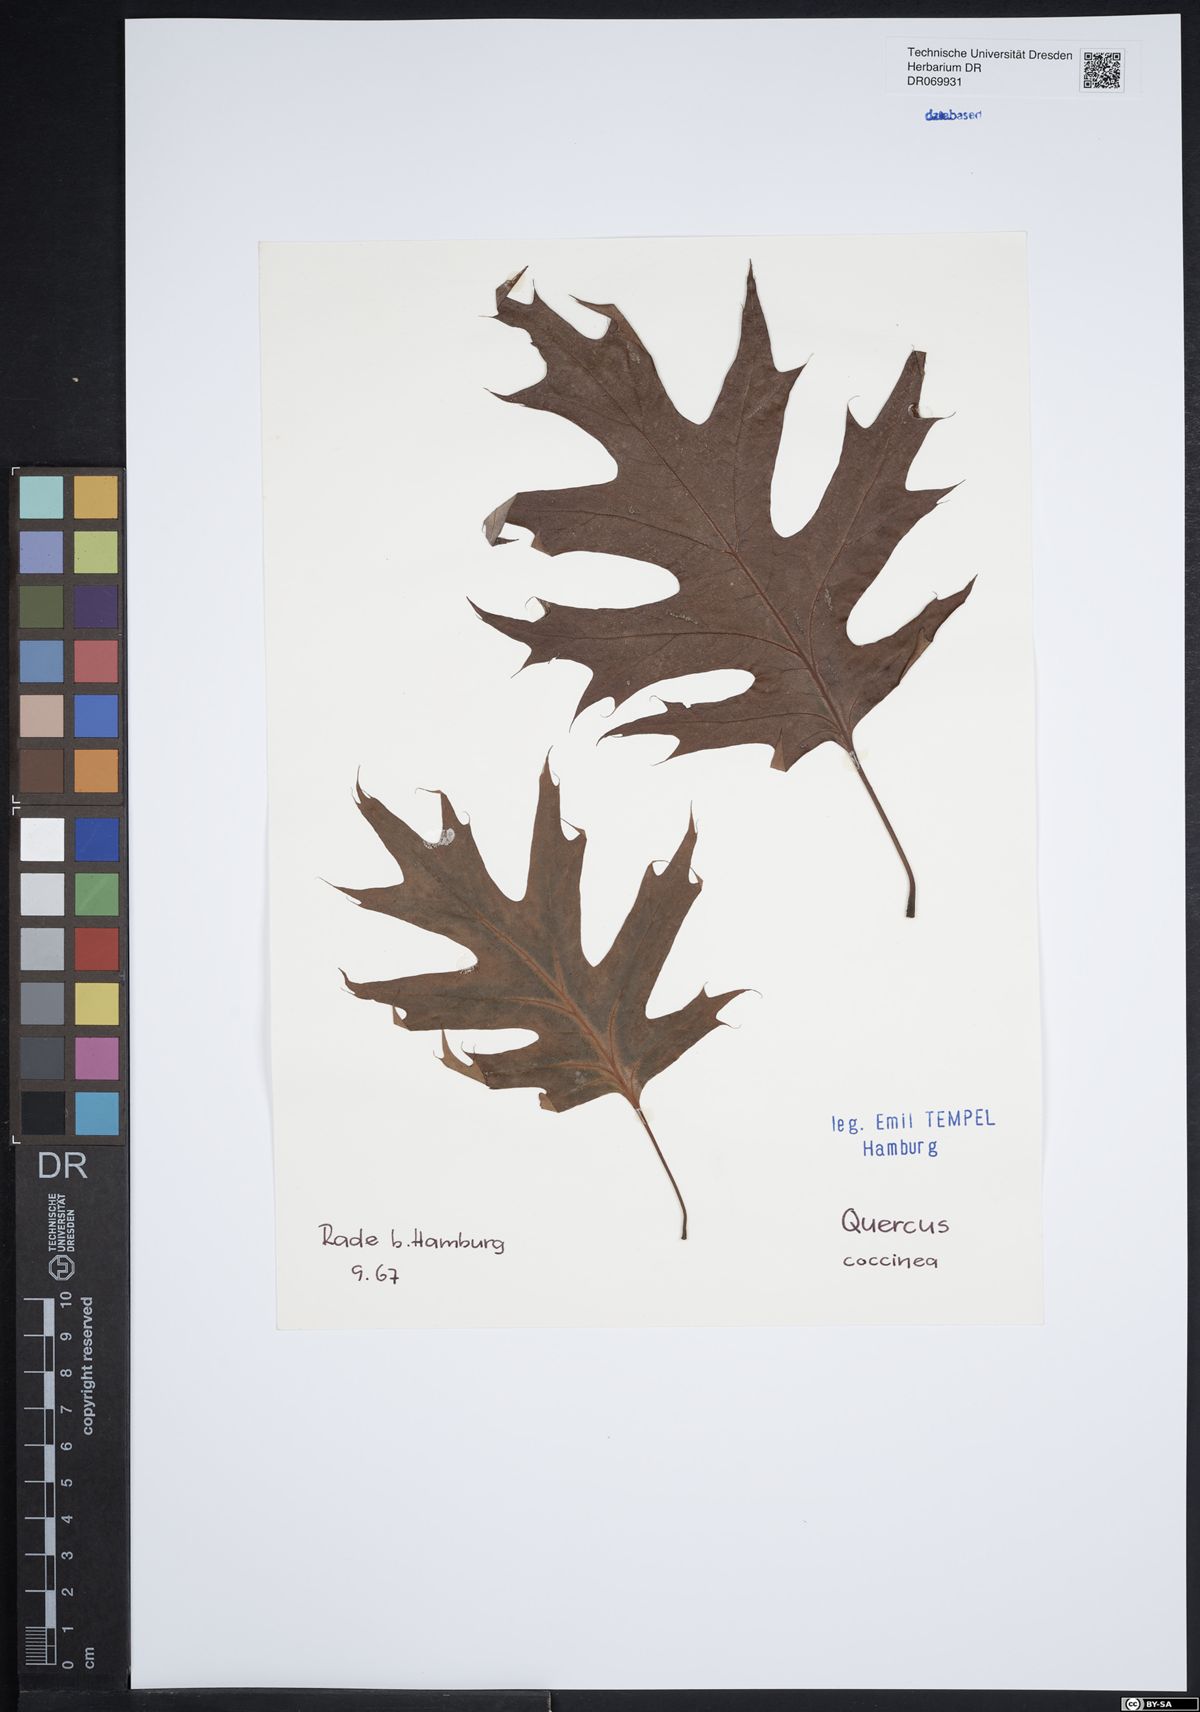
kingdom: Plantae
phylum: Tracheophyta
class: Magnoliopsida
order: Fagales
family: Fagaceae
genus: Quercus
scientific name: Quercus coccinea
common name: Scarlet oak
